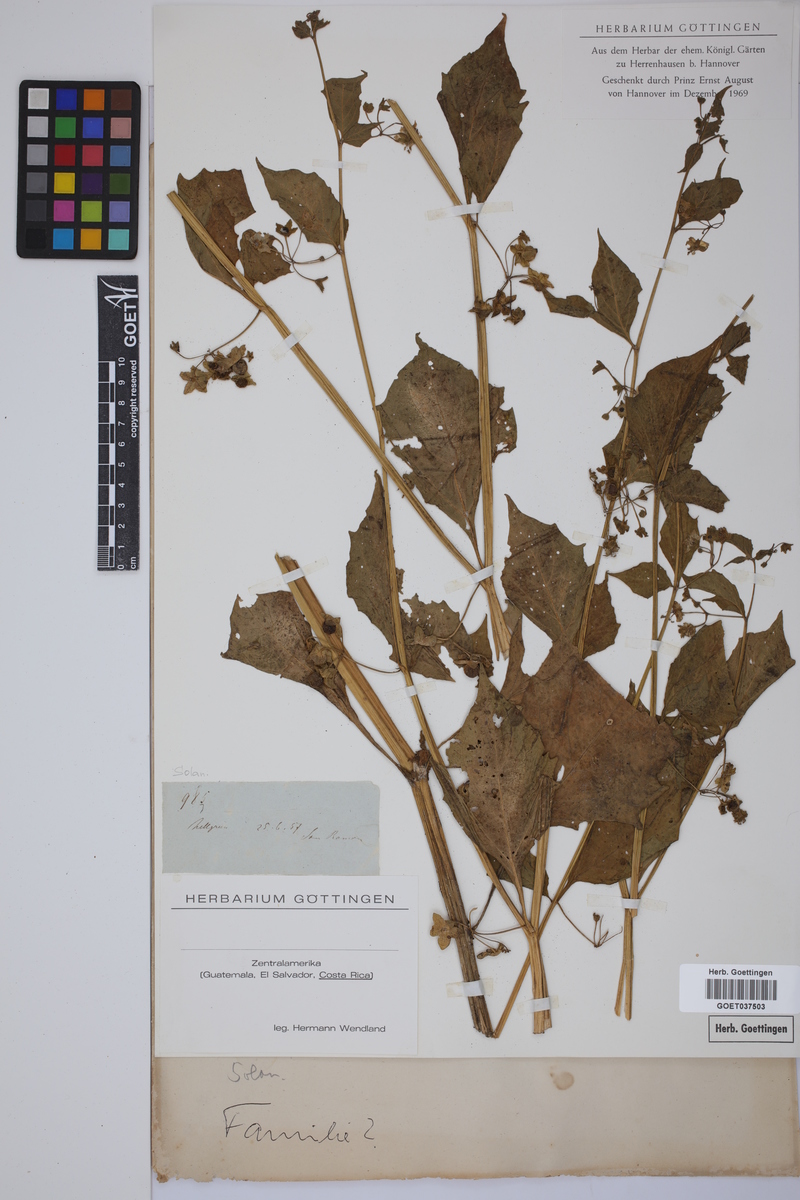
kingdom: Plantae
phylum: Tracheophyta
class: Magnoliopsida
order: Solanales
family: Solanaceae
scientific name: Solanaceae
